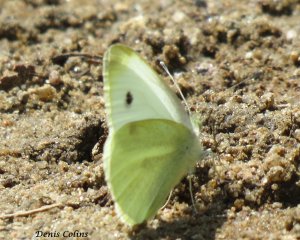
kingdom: Animalia
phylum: Arthropoda
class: Insecta
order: Lepidoptera
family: Pieridae
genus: Pieris
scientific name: Pieris rapae
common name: Cabbage White
